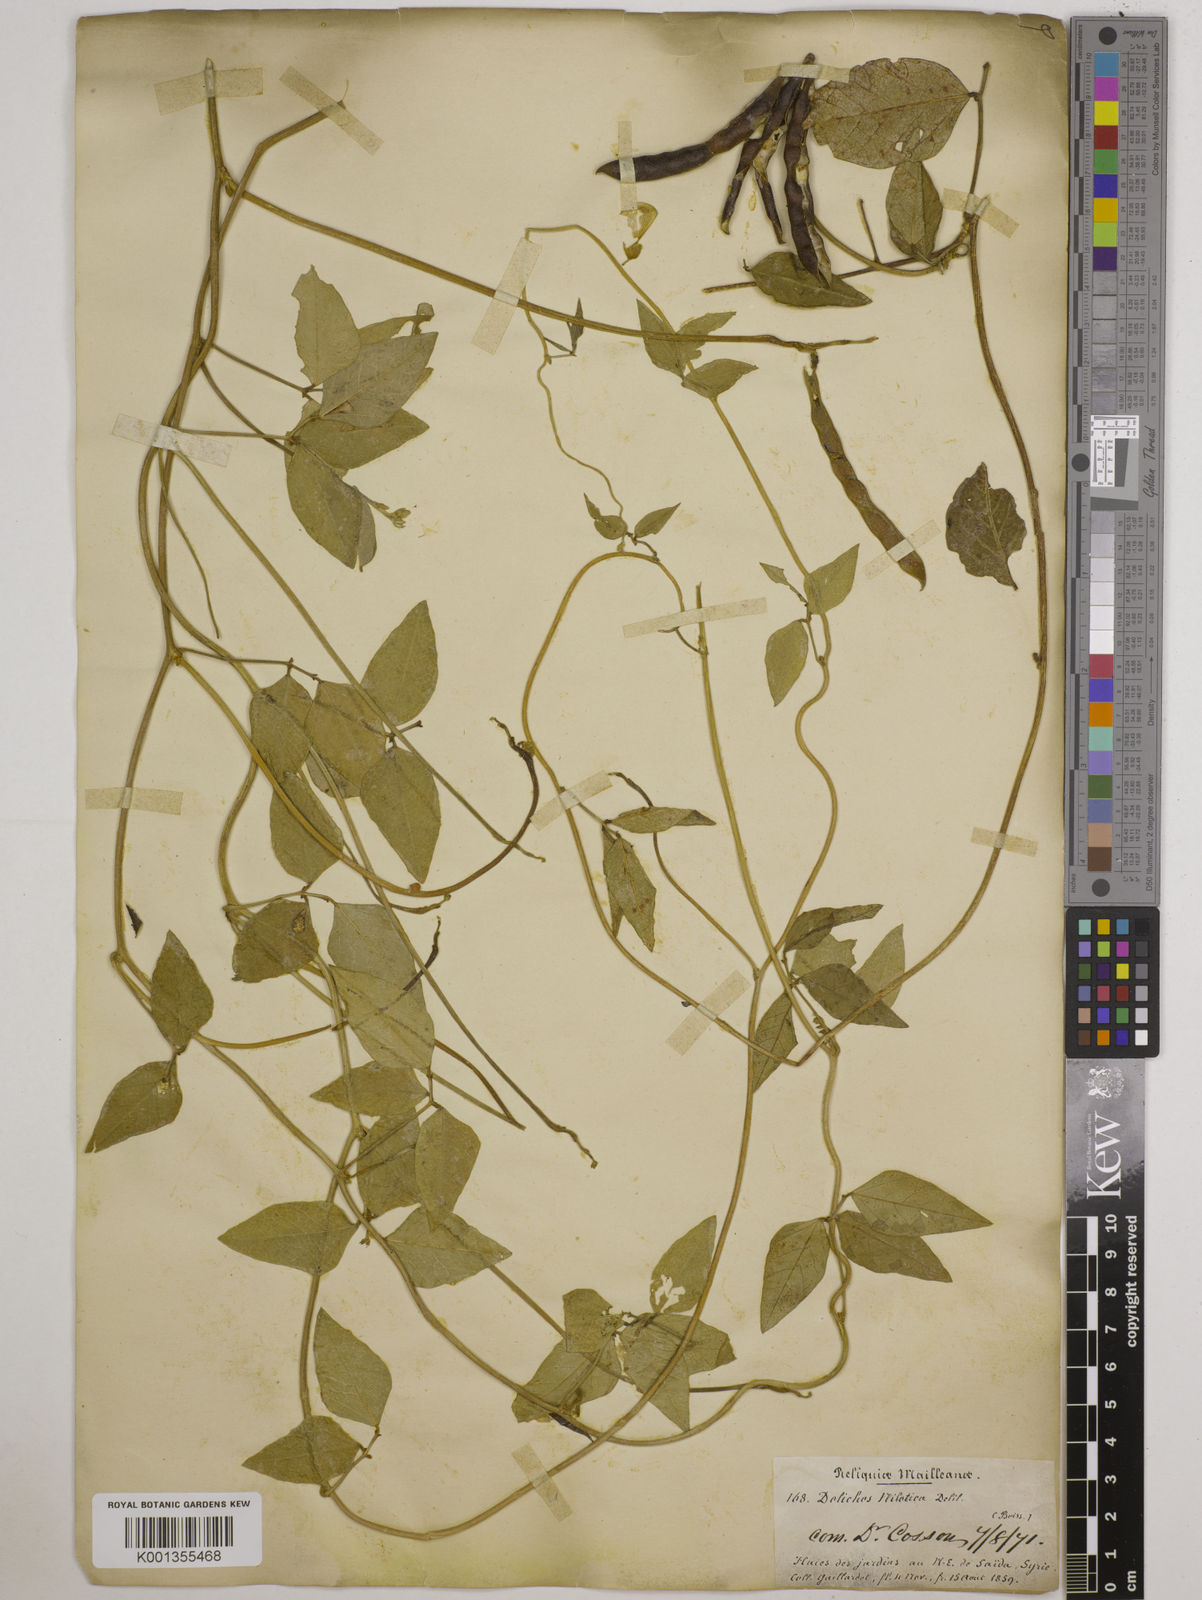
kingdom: Plantae
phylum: Tracheophyta
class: Magnoliopsida
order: Fabales
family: Fabaceae
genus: Vigna
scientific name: Vigna luteola
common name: Hairypod cowpea
